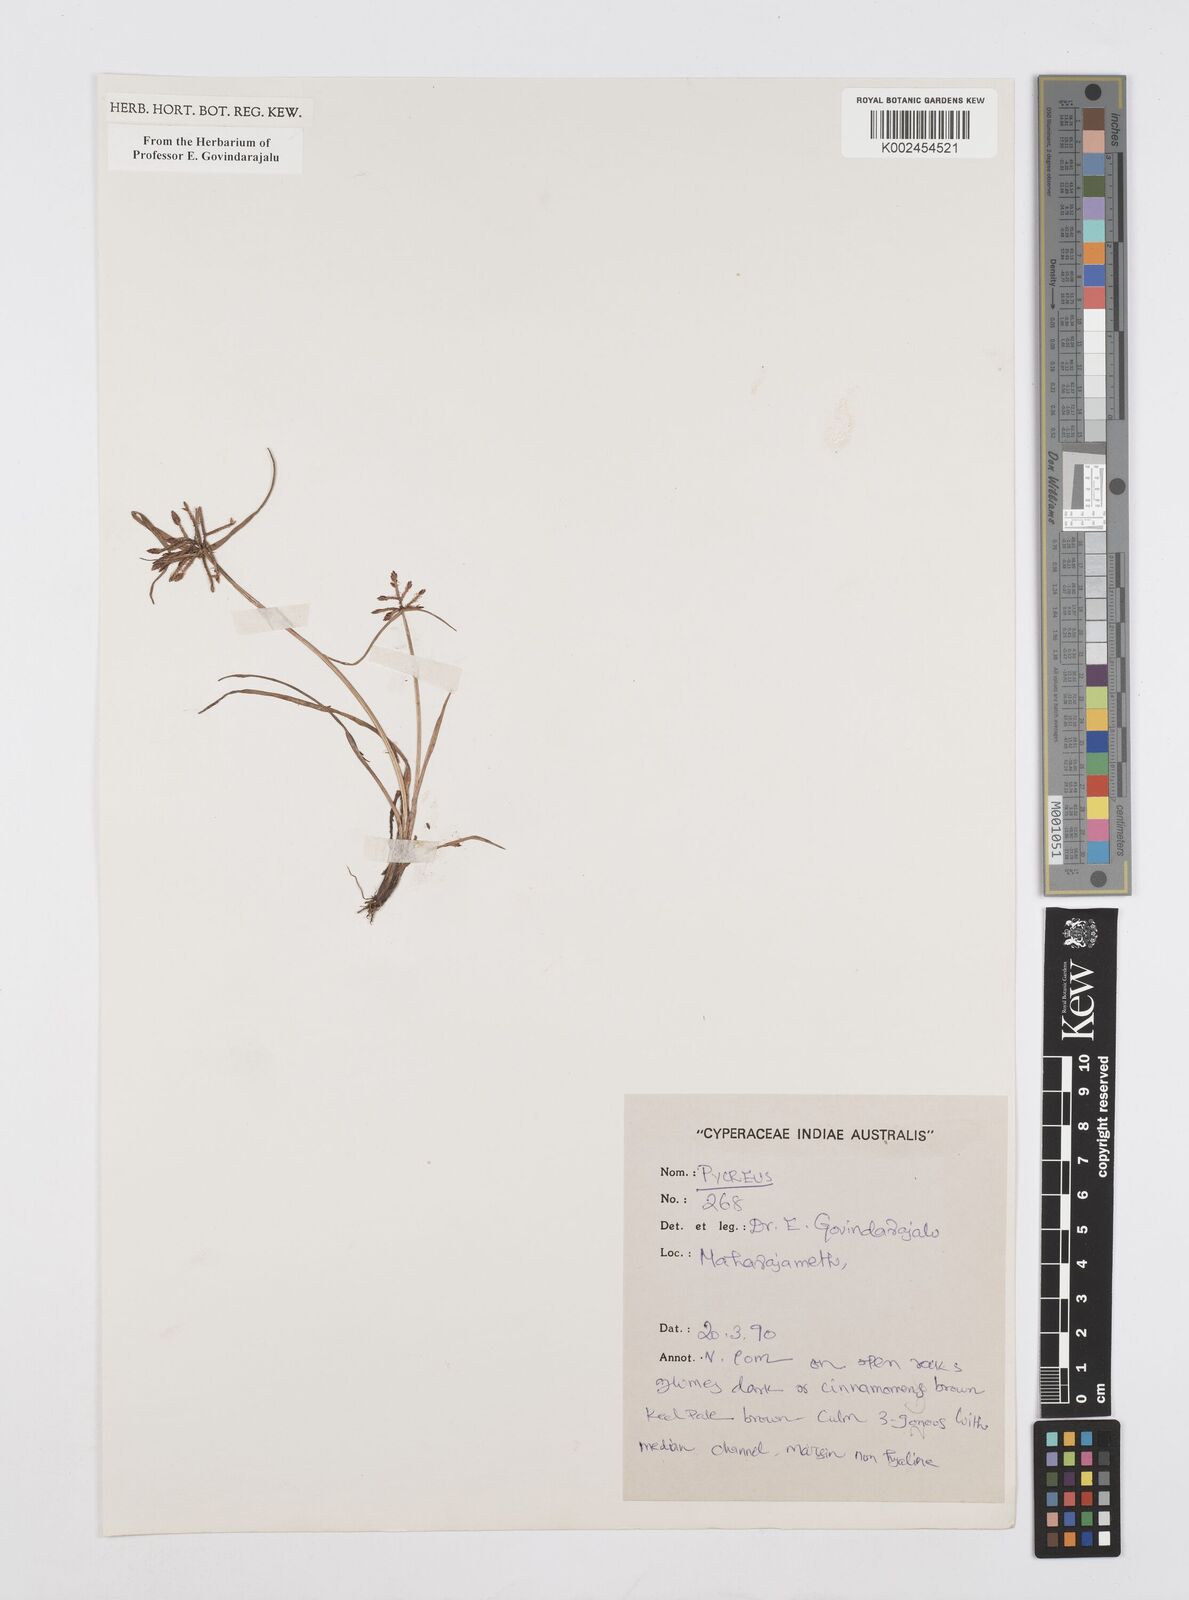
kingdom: Plantae
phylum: Tracheophyta
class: Liliopsida
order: Poales
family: Cyperaceae
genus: Cyperus
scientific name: Cyperus
